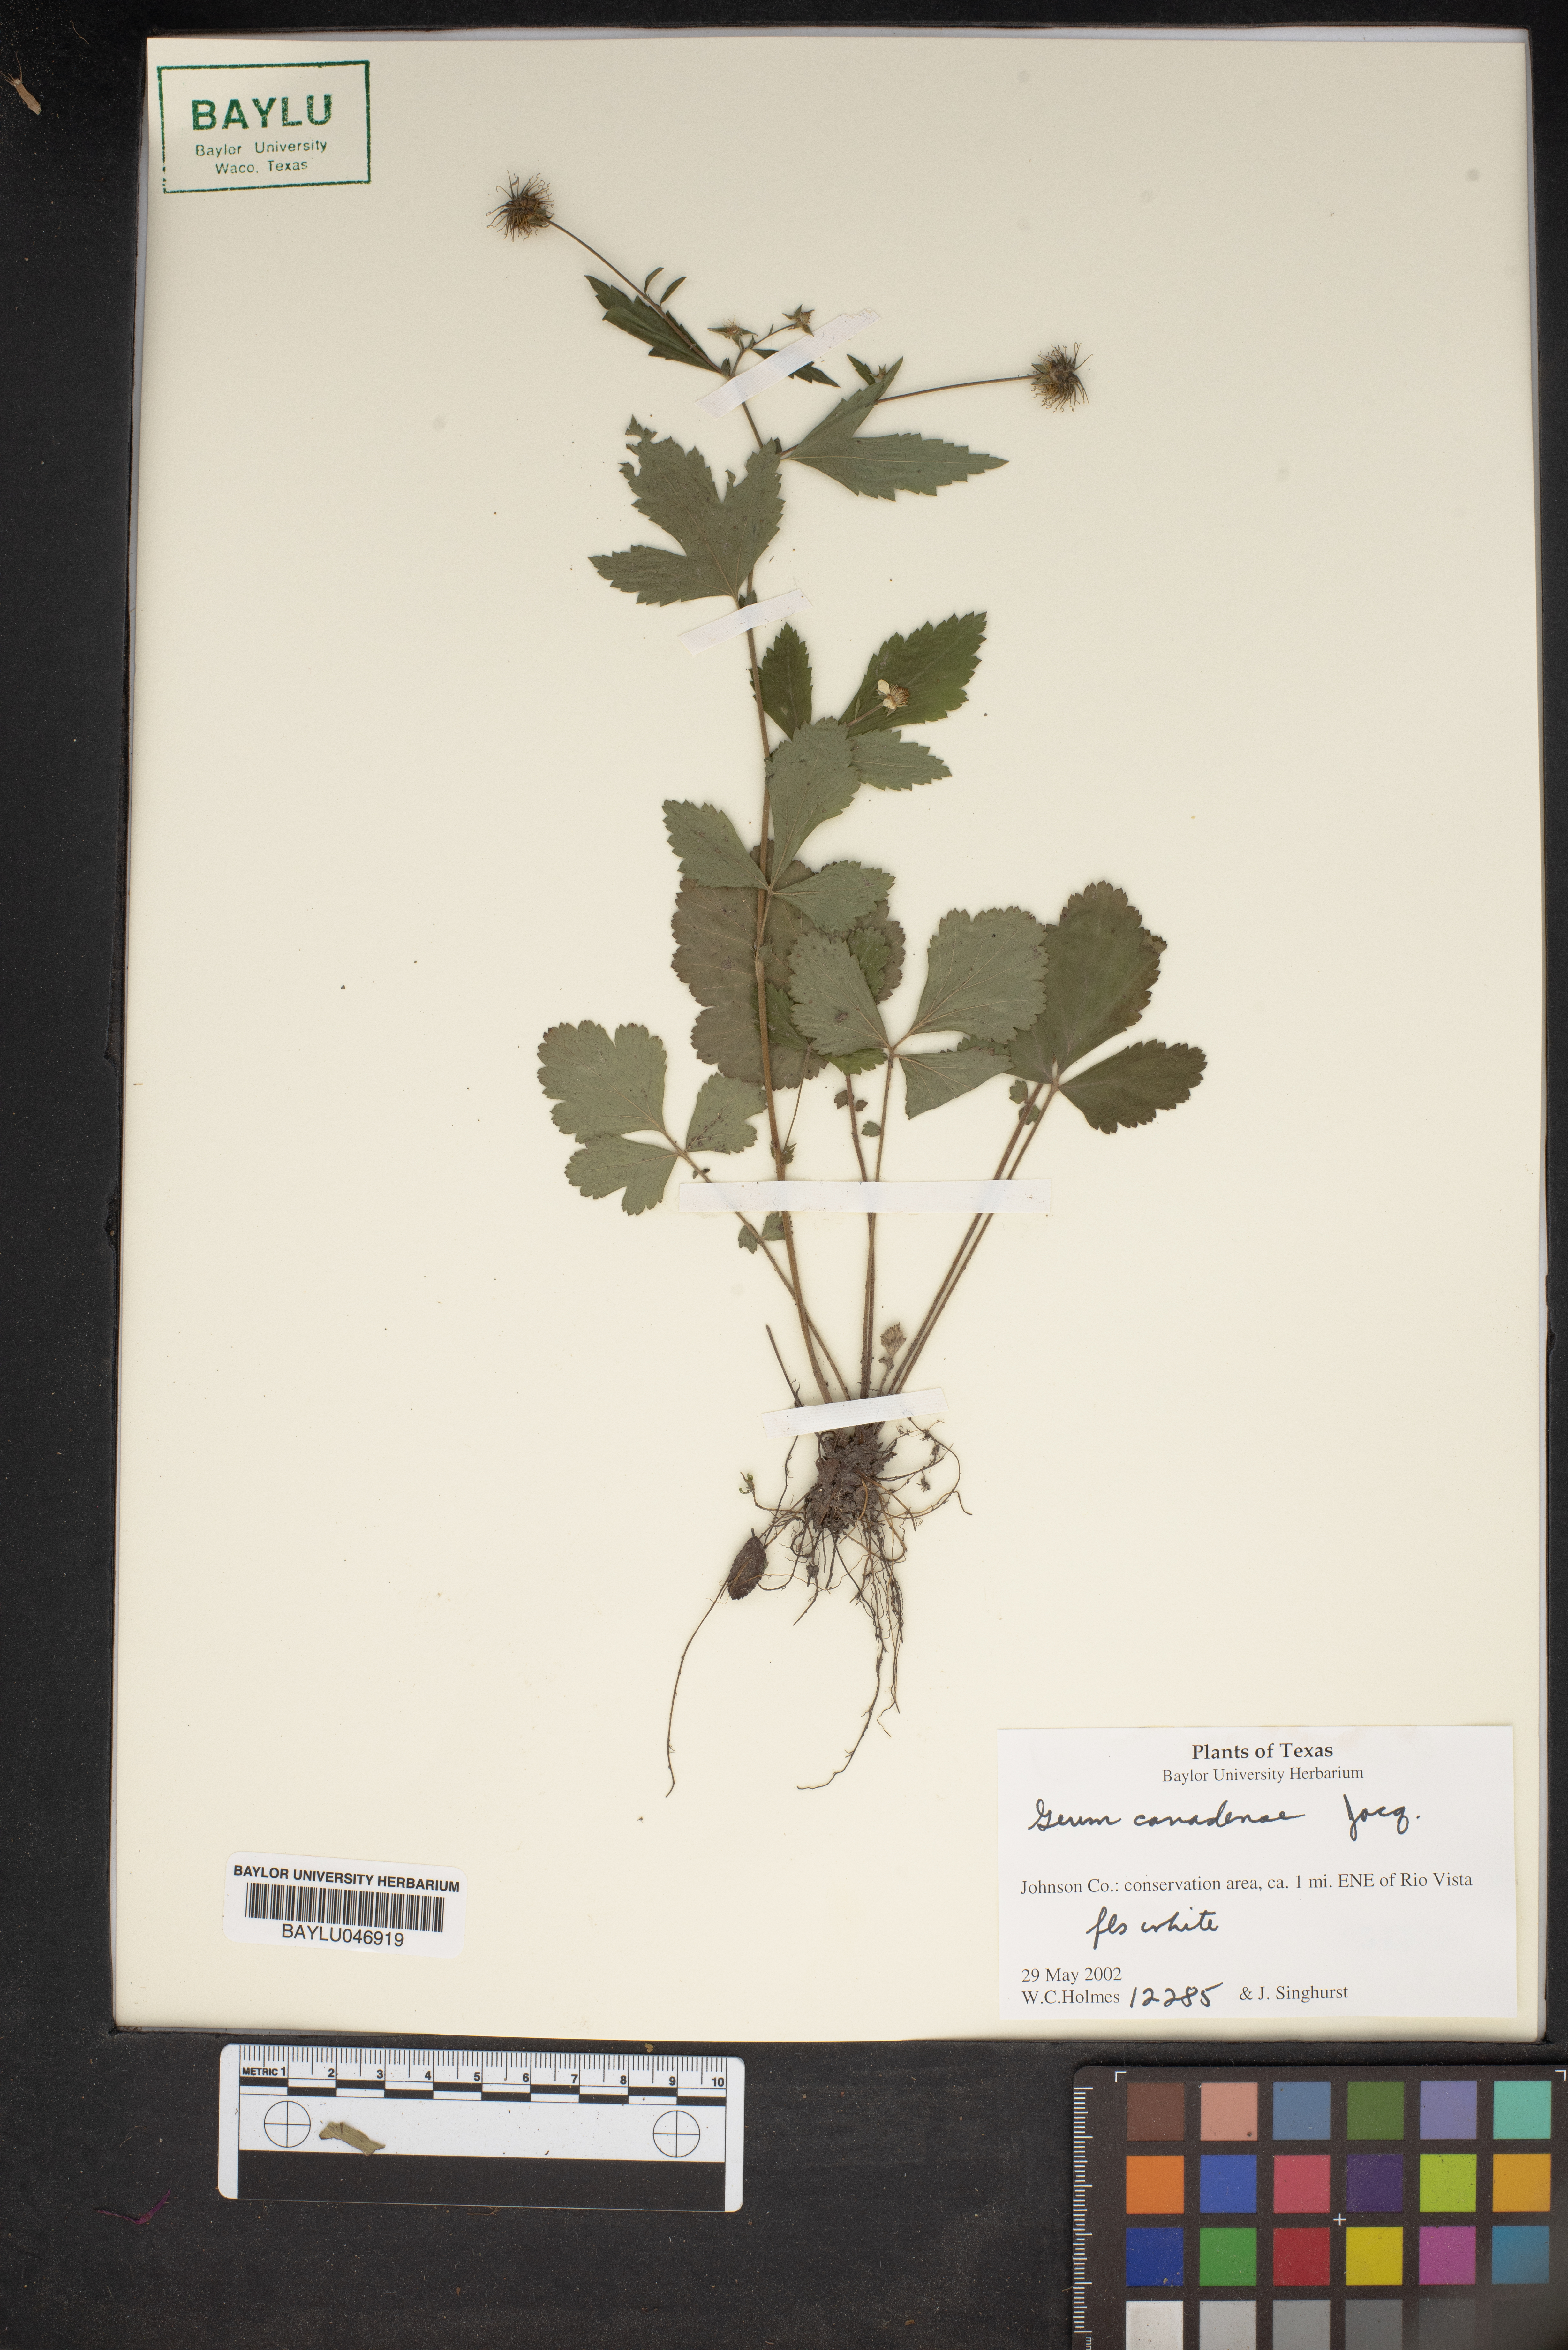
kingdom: Plantae
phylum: Tracheophyta
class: Magnoliopsida
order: Rosales
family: Rosaceae
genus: Geum
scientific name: Geum canadense
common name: White avens
